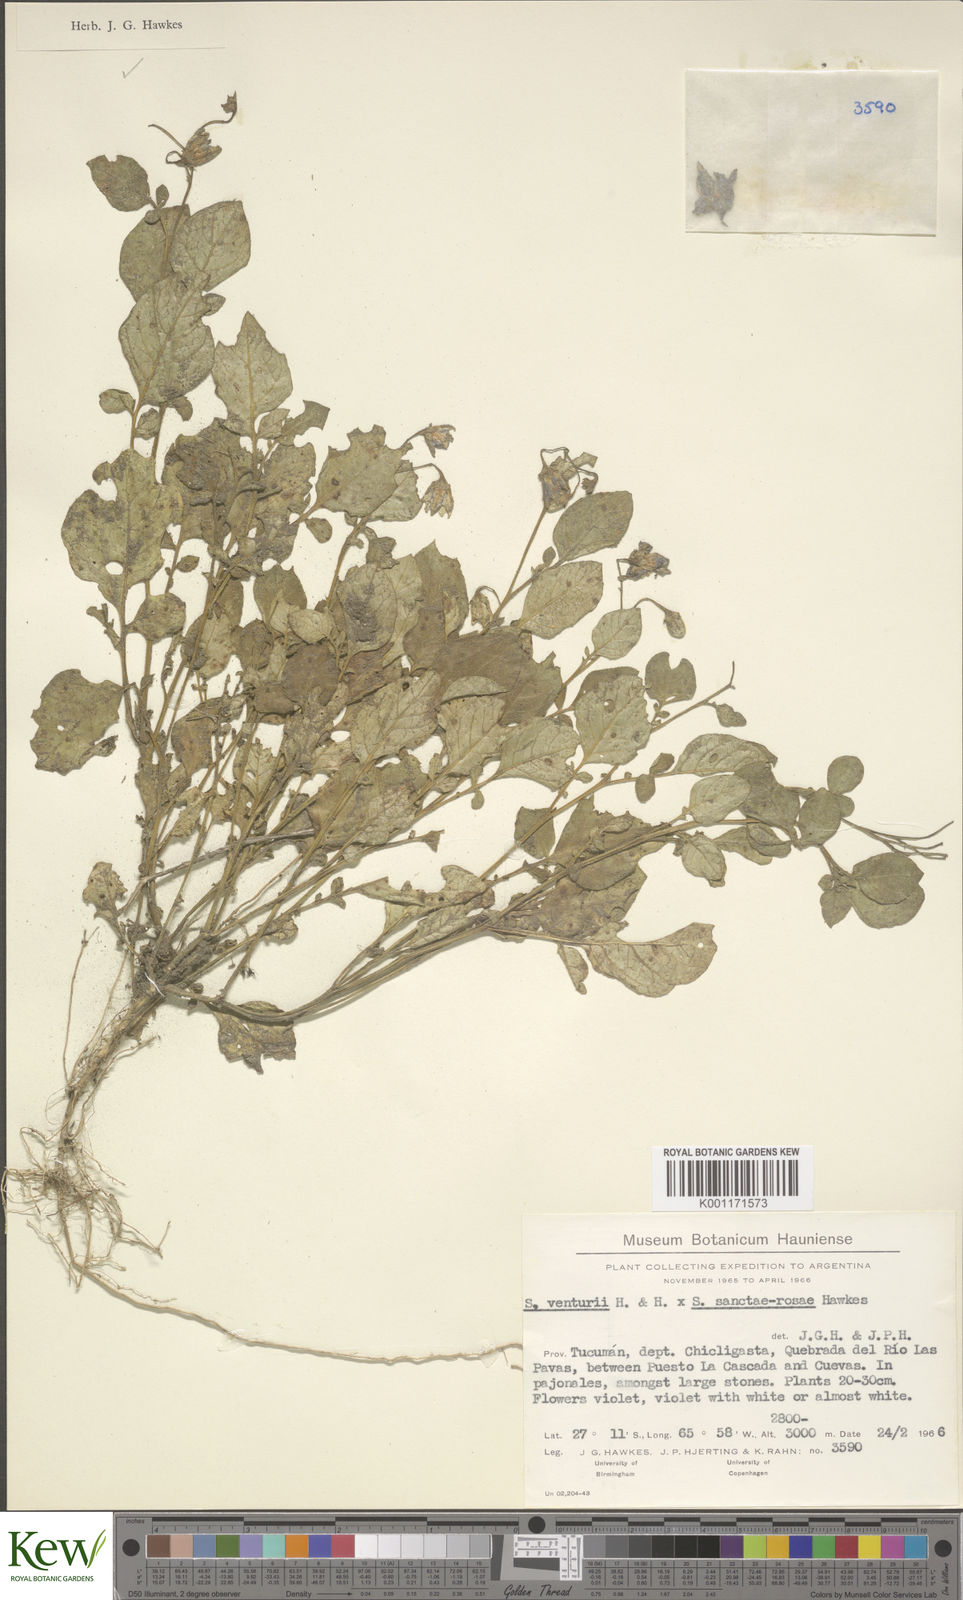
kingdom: Plantae
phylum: Tracheophyta
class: Magnoliopsida
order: Solanales
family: Solanaceae
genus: Solanum
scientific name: Solanum venturii
